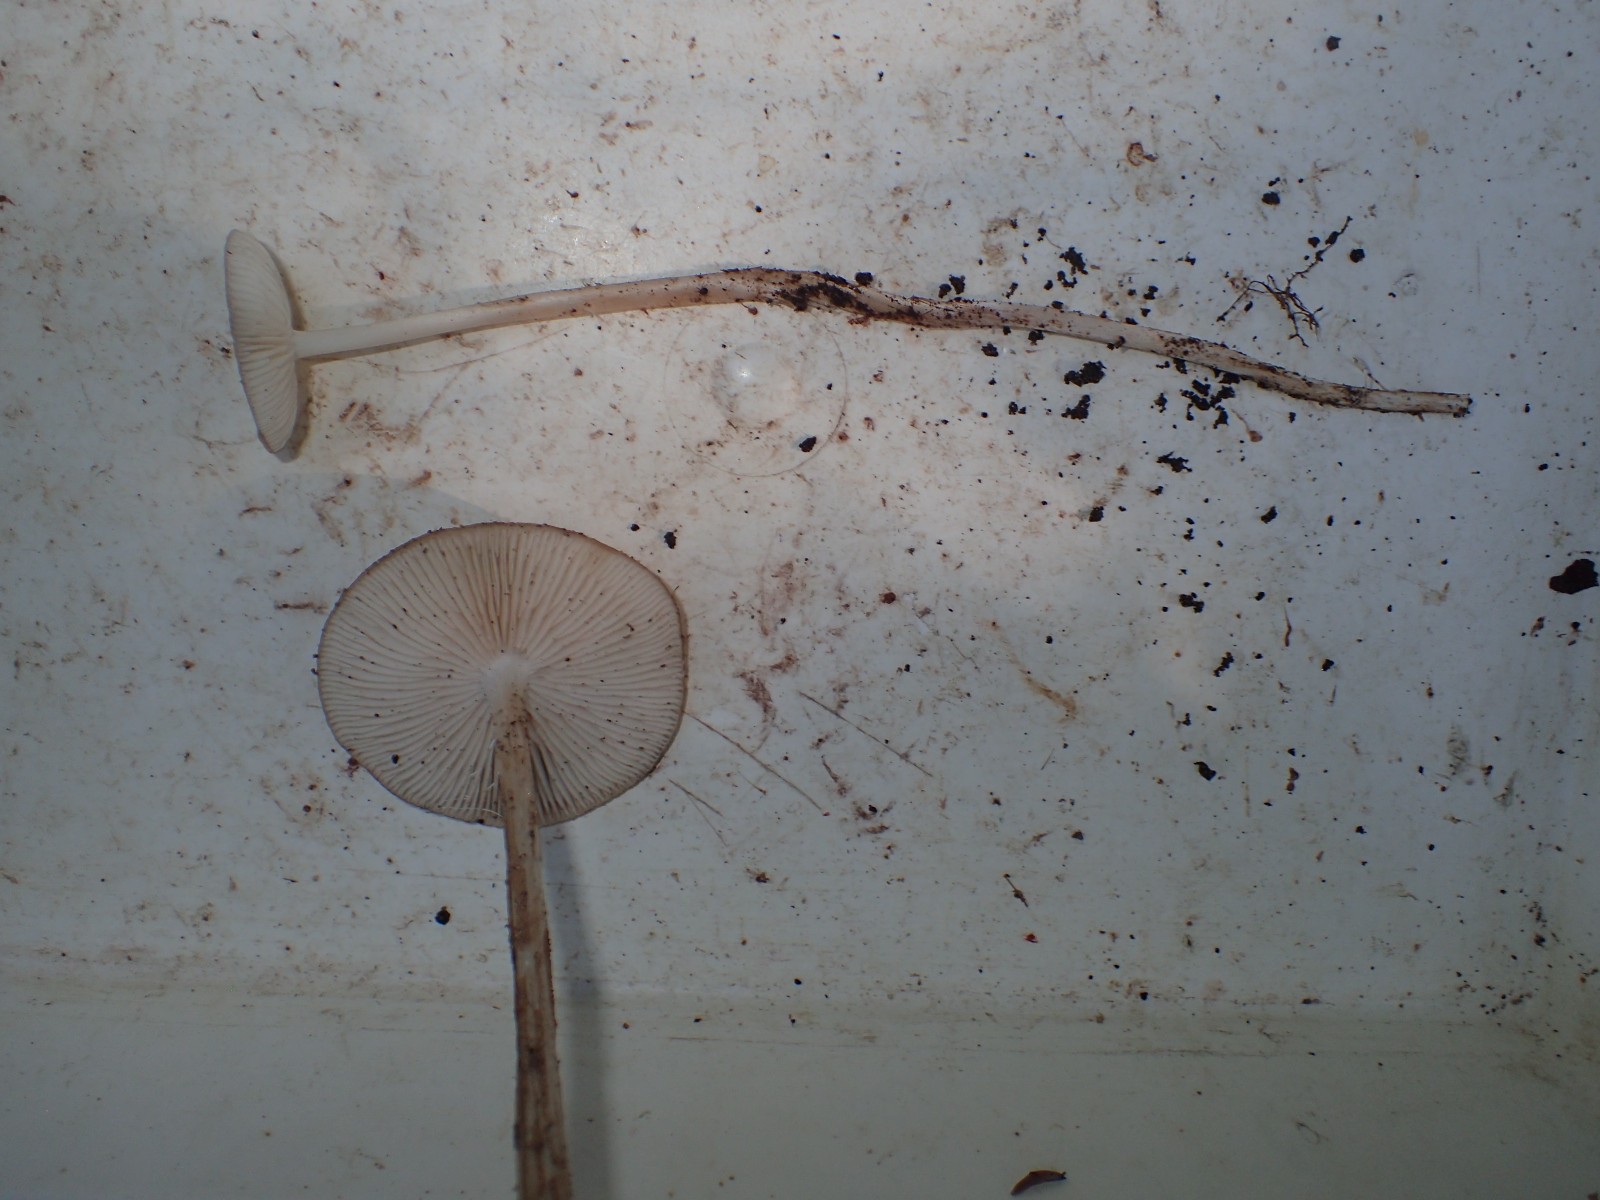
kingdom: Fungi
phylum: Basidiomycota
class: Agaricomycetes
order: Agaricales
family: Physalacriaceae
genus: Hymenopellis
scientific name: Hymenopellis radicata
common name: almindelig pælerodshat
